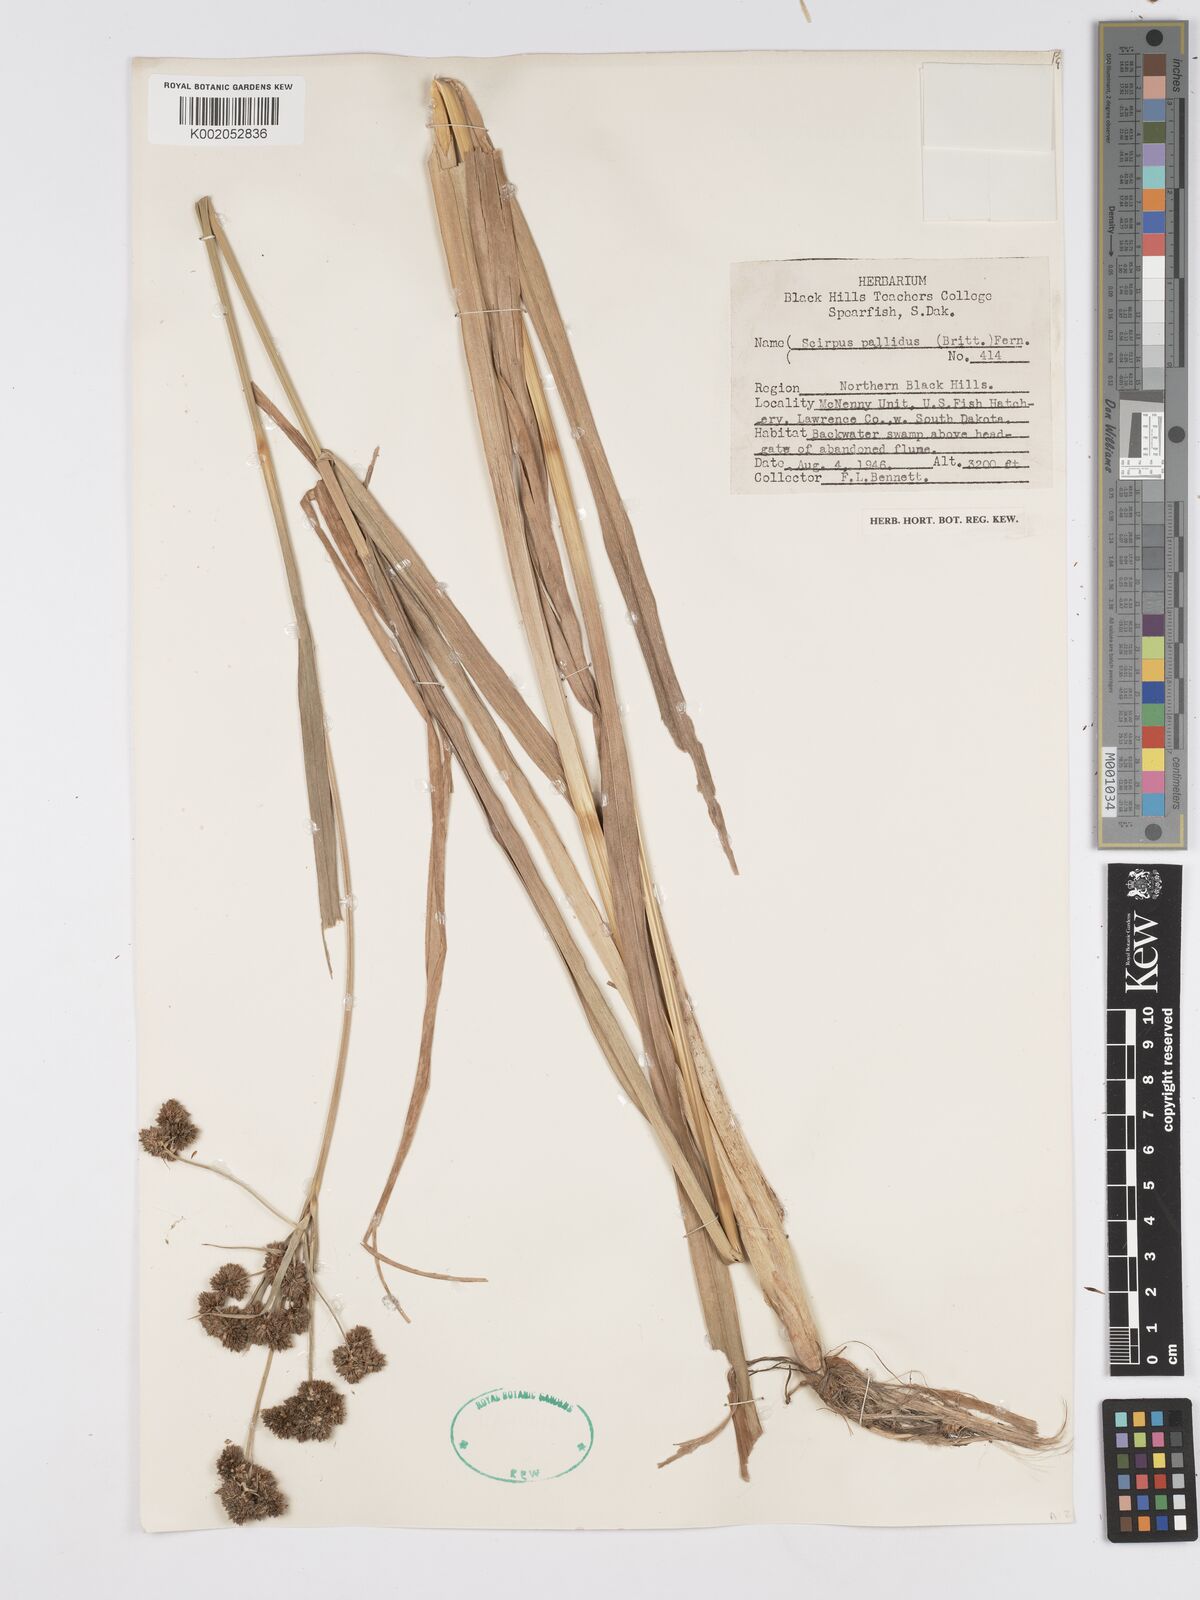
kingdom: Plantae
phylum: Tracheophyta
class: Liliopsida
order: Poales
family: Cyperaceae
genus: Scirpus
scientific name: Scirpus pallidus
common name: Cloaked bulrush
